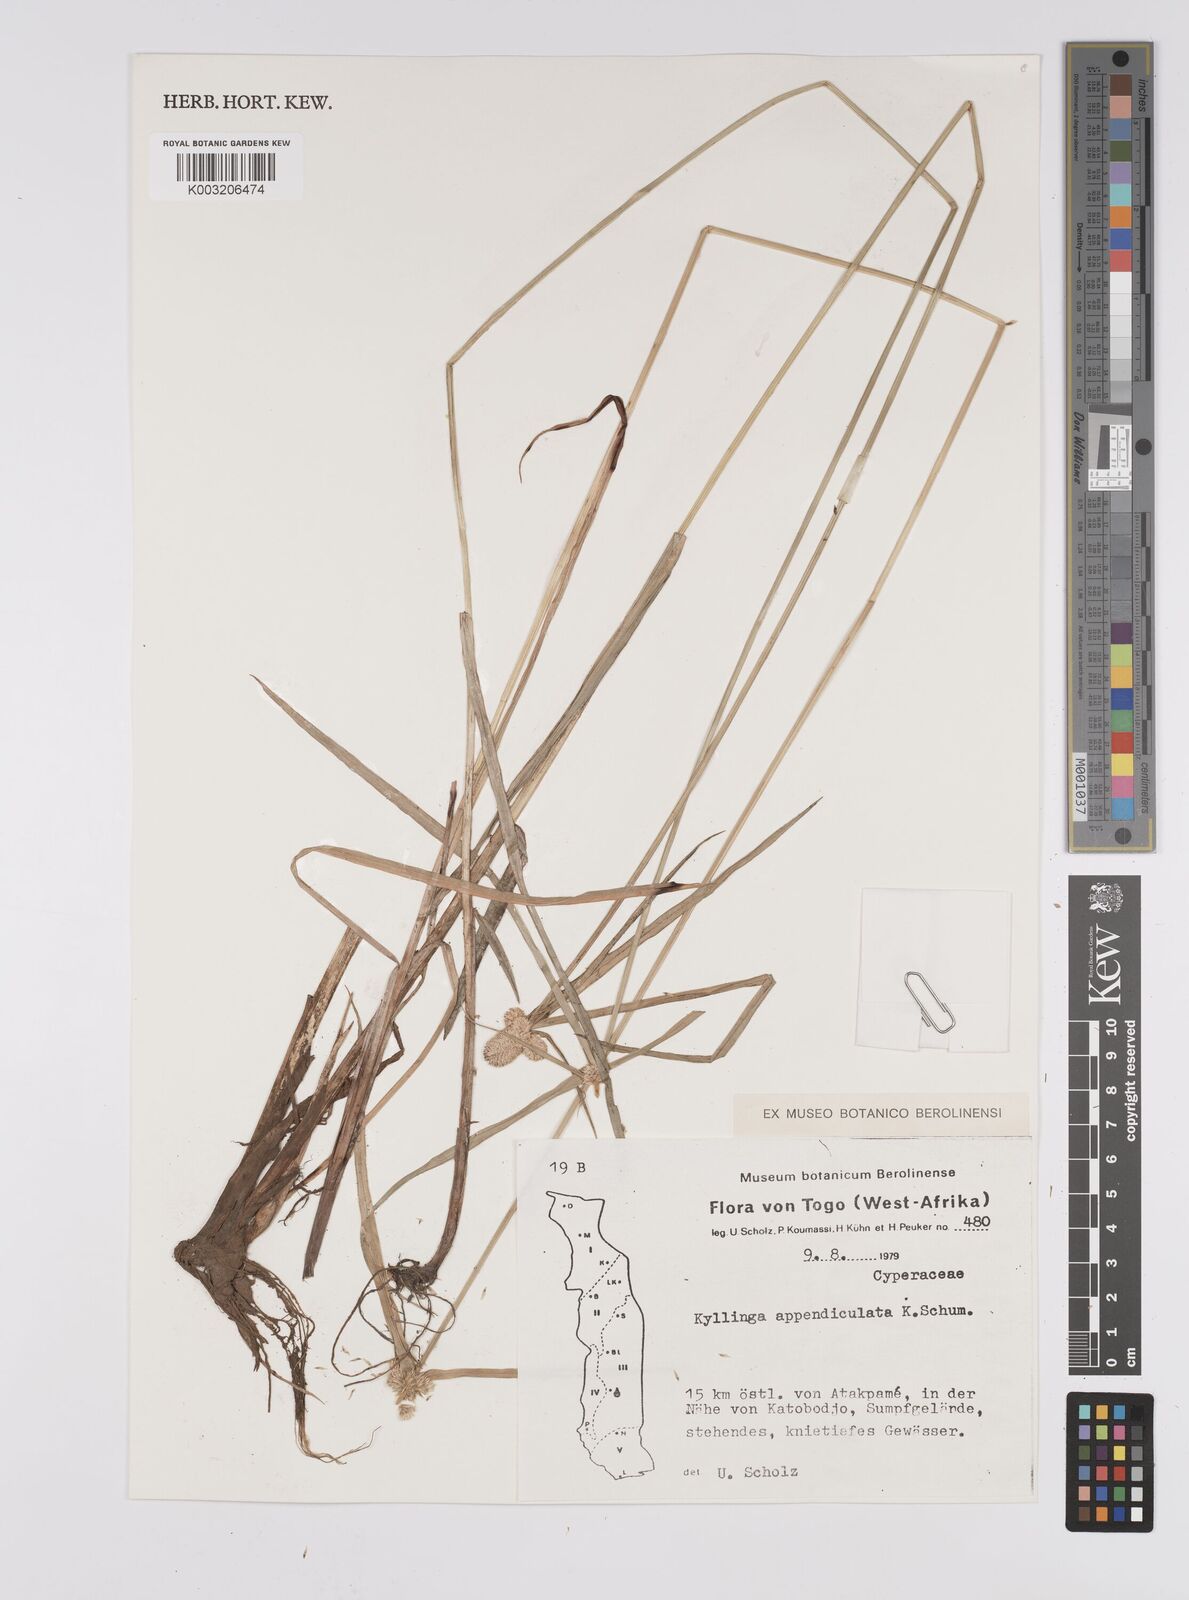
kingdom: Plantae
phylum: Tracheophyta
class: Liliopsida
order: Poales
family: Cyperaceae
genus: Cyperus
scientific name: Cyperus
